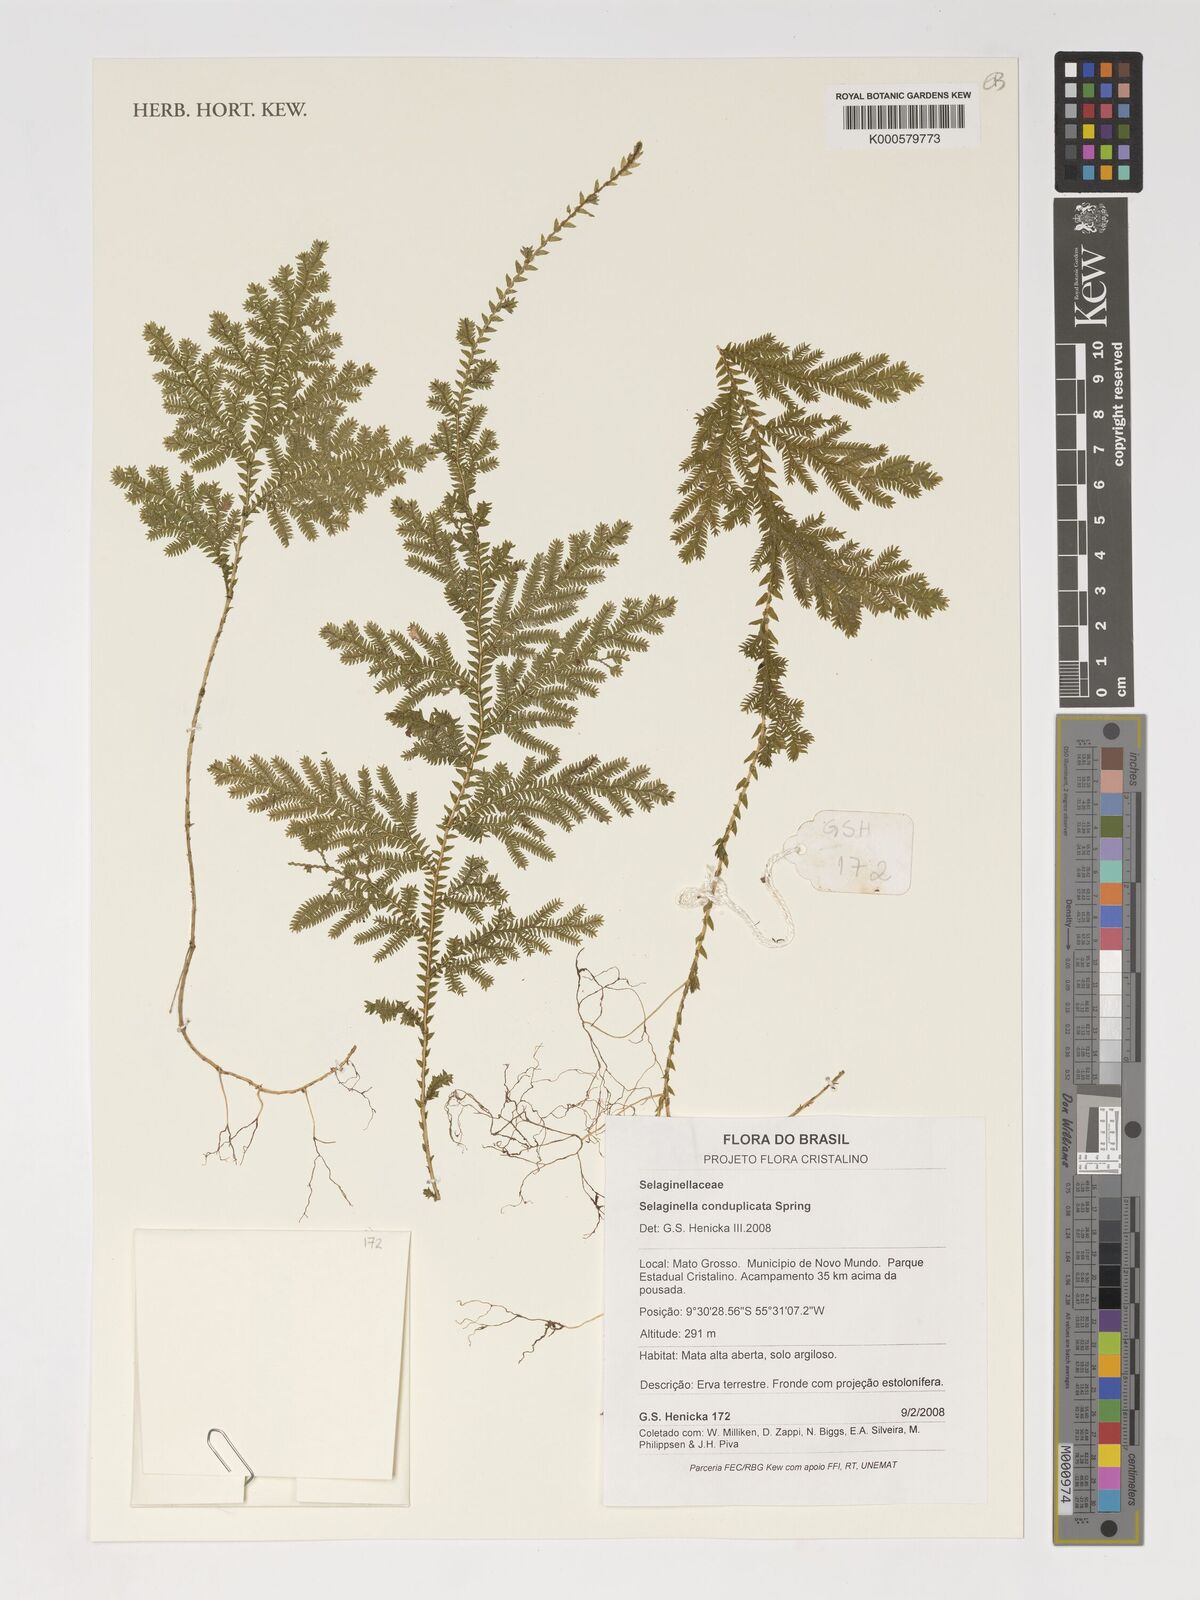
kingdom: Plantae
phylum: Tracheophyta
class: Lycopodiopsida
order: Selaginellales
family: Selaginellaceae
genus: Selaginella
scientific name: Selaginella conduplicata
